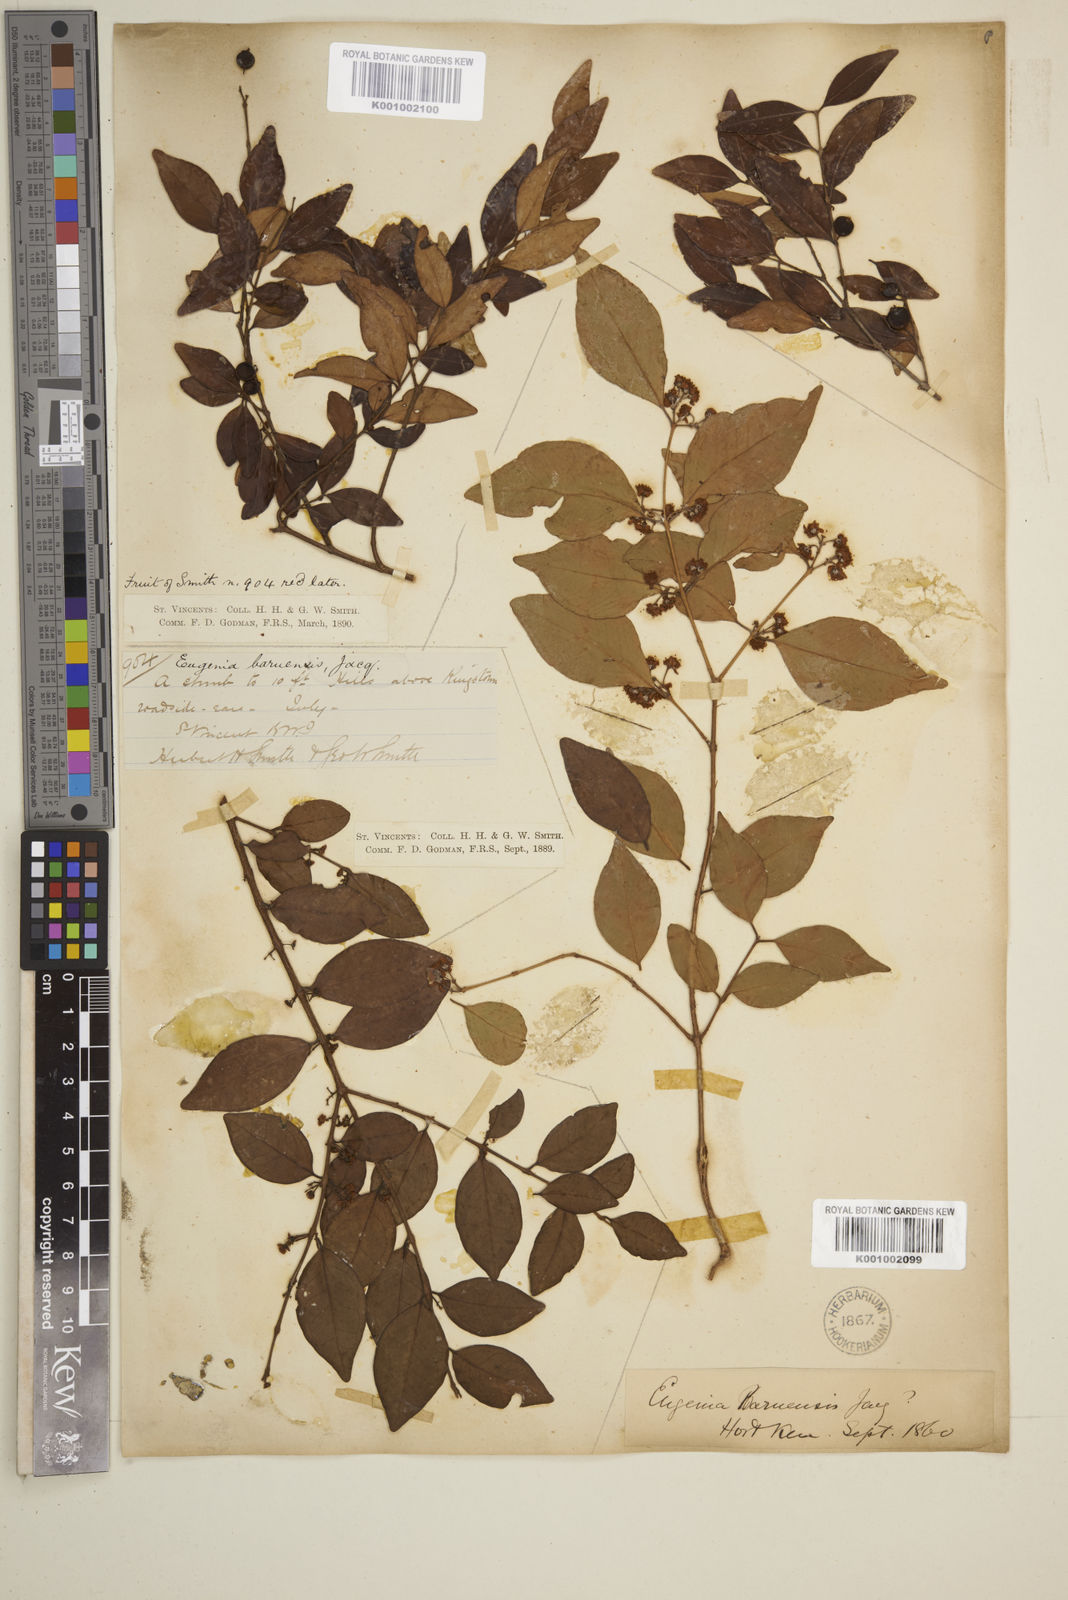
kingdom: Plantae
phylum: Tracheophyta
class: Magnoliopsida
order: Myrtales
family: Myrtaceae
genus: Eugenia
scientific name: Eugenia buxifolia
